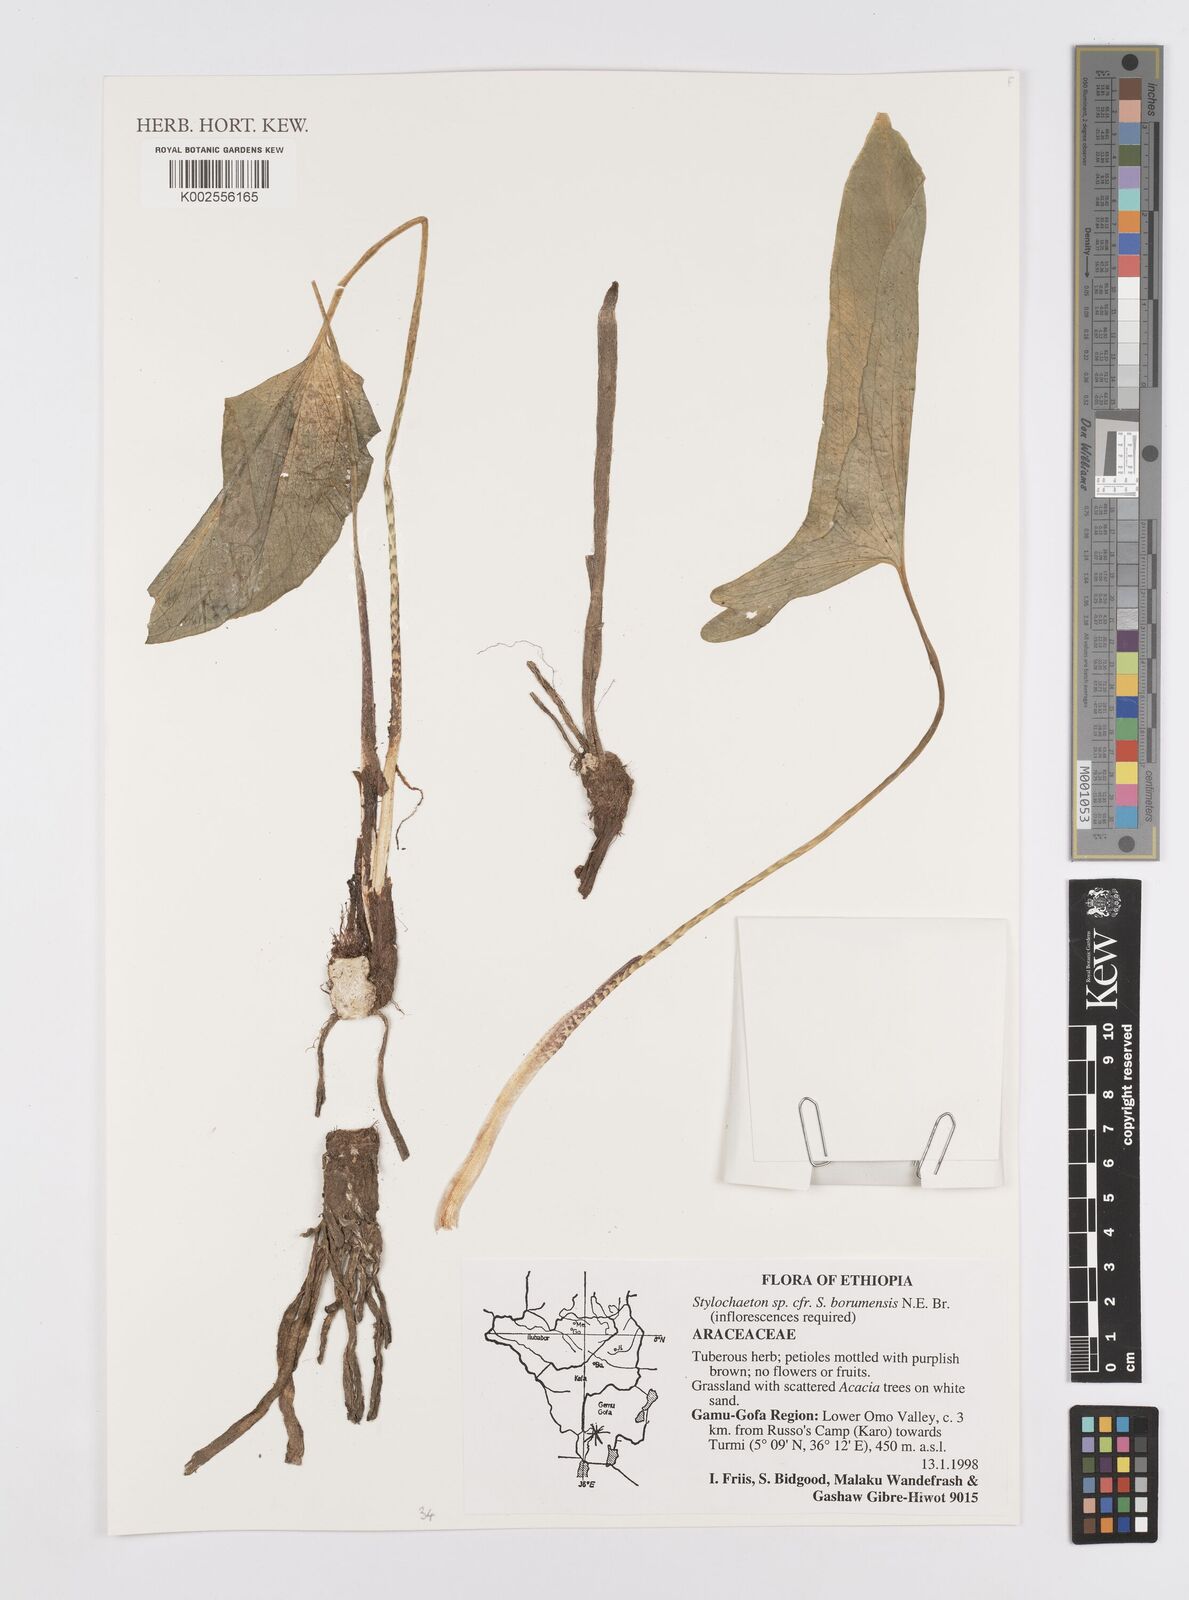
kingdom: Plantae
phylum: Tracheophyta
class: Liliopsida
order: Alismatales
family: Araceae
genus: Stylochaeton
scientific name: Stylochaeton borumense
